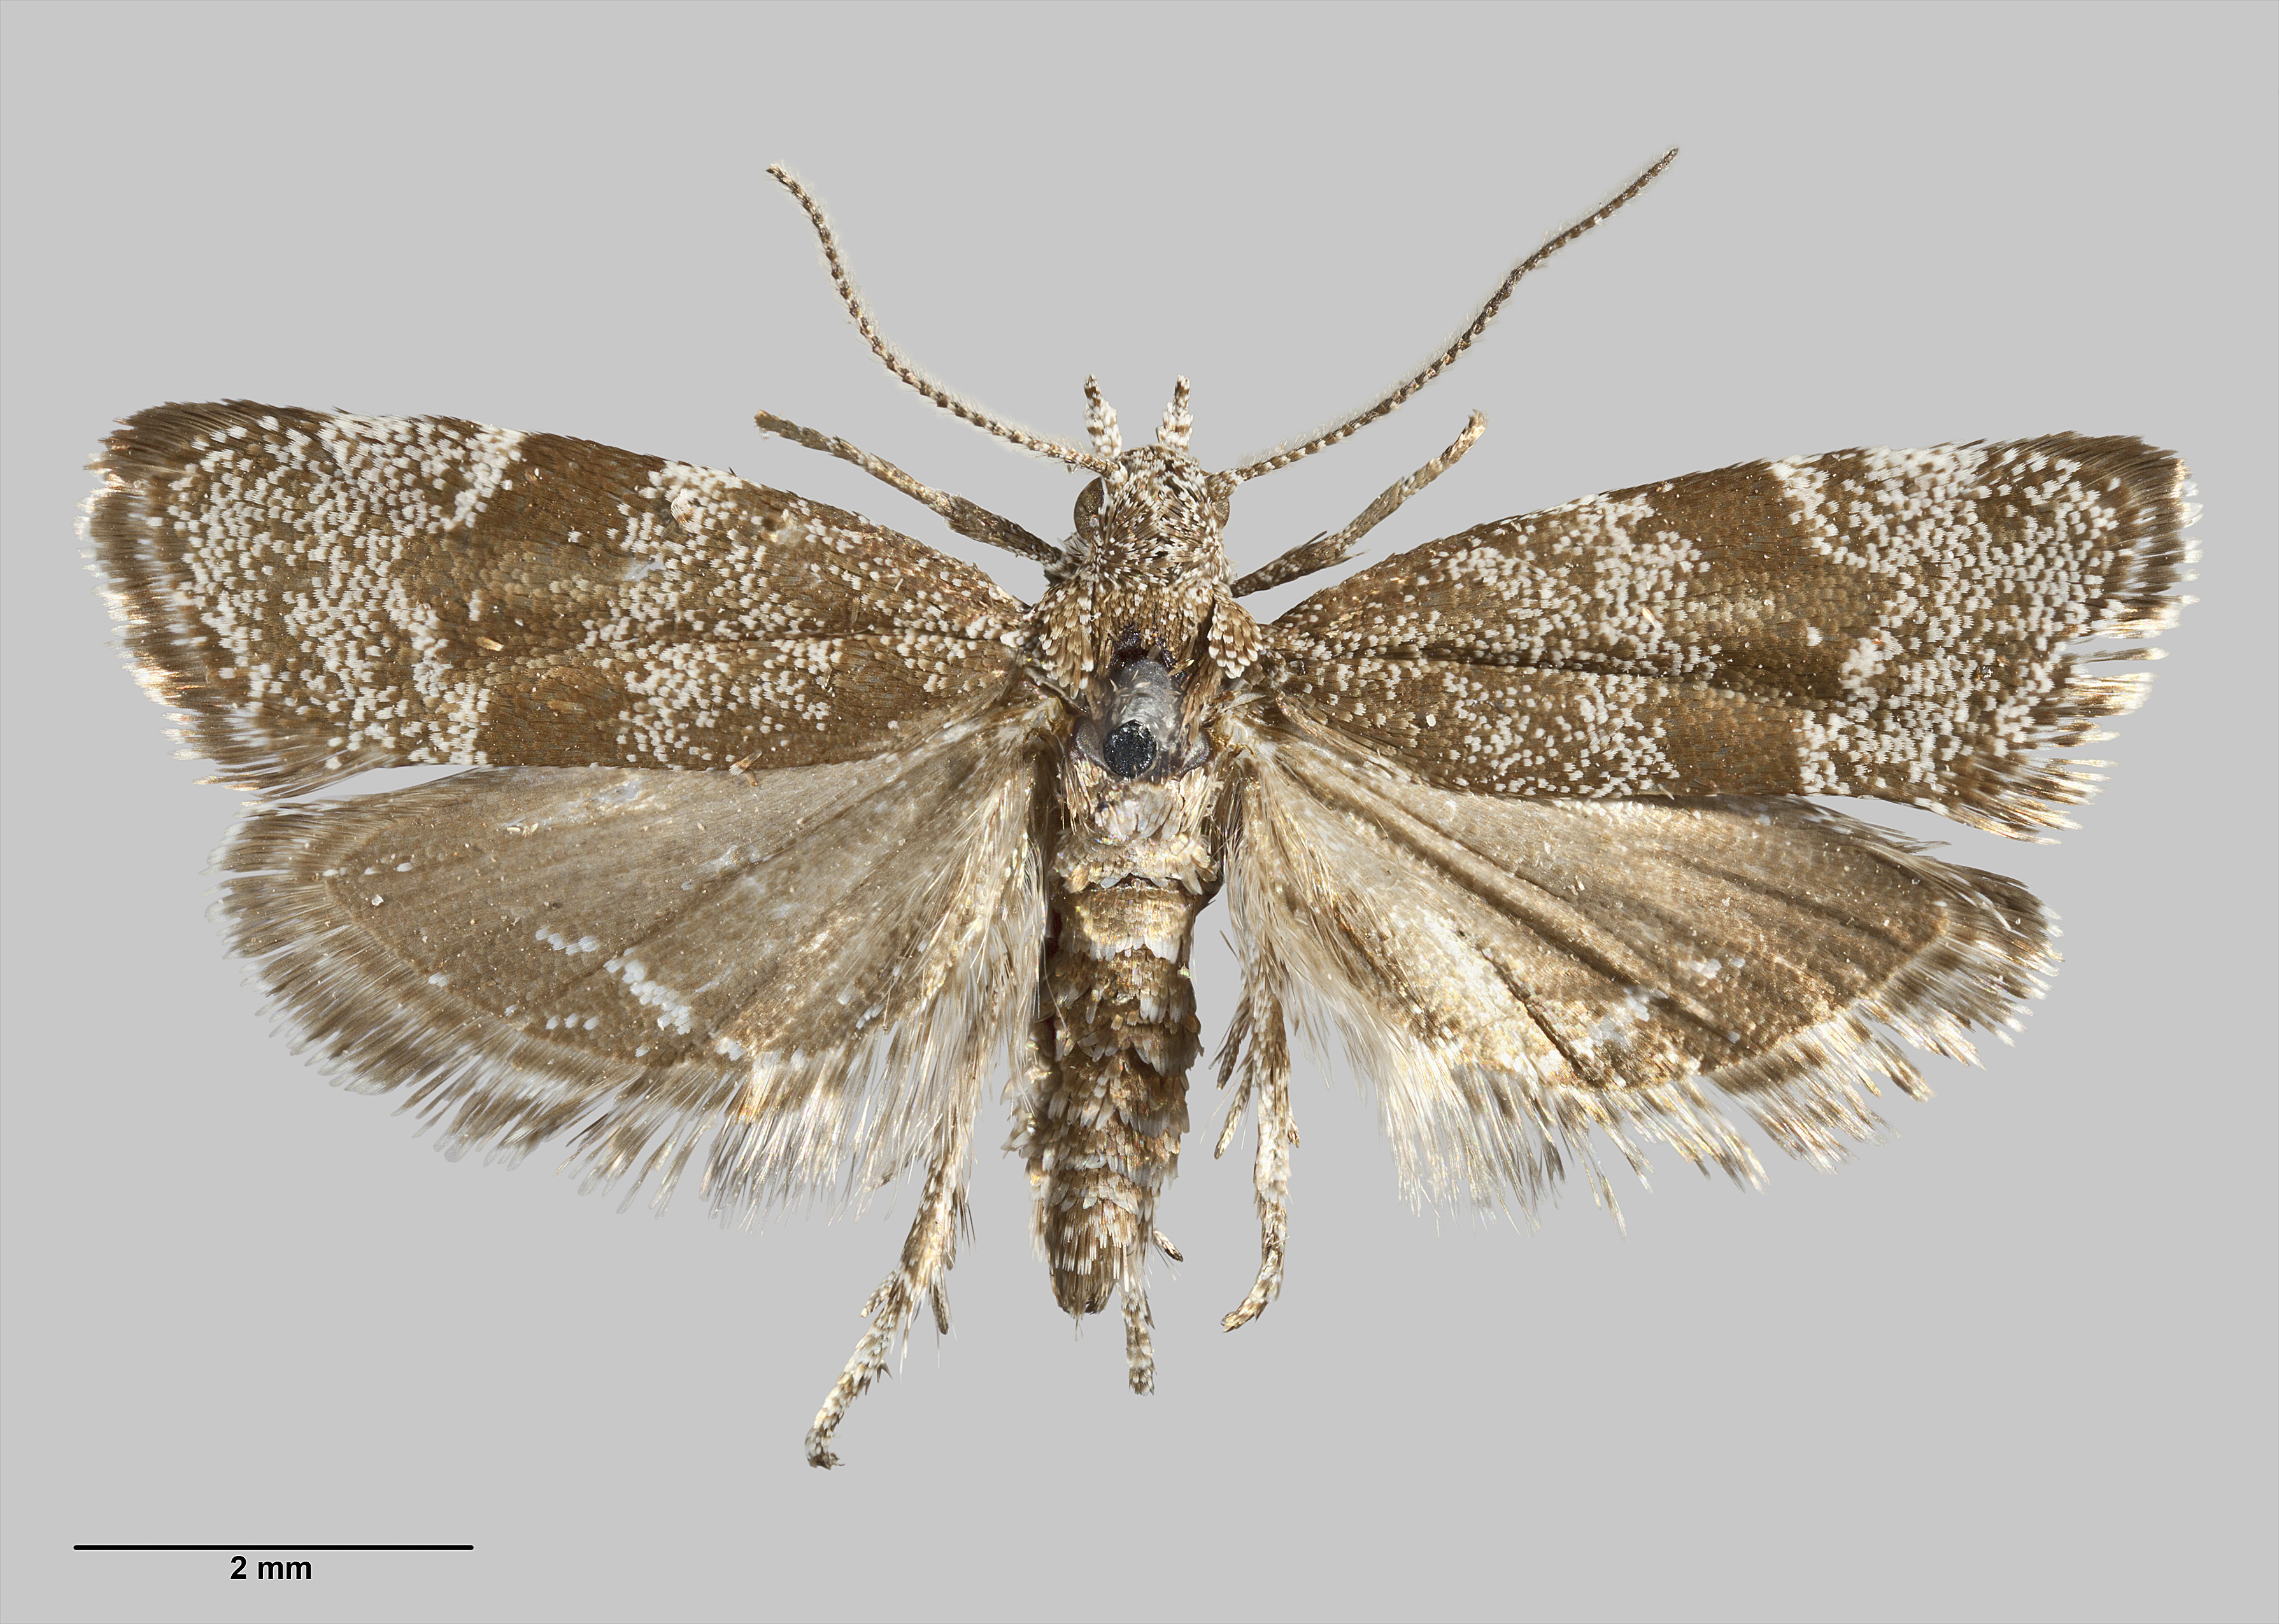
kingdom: Animalia
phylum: Arthropoda
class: Insecta
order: Lepidoptera
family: Choreutidae
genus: Asterivora
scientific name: Asterivora fasciata
